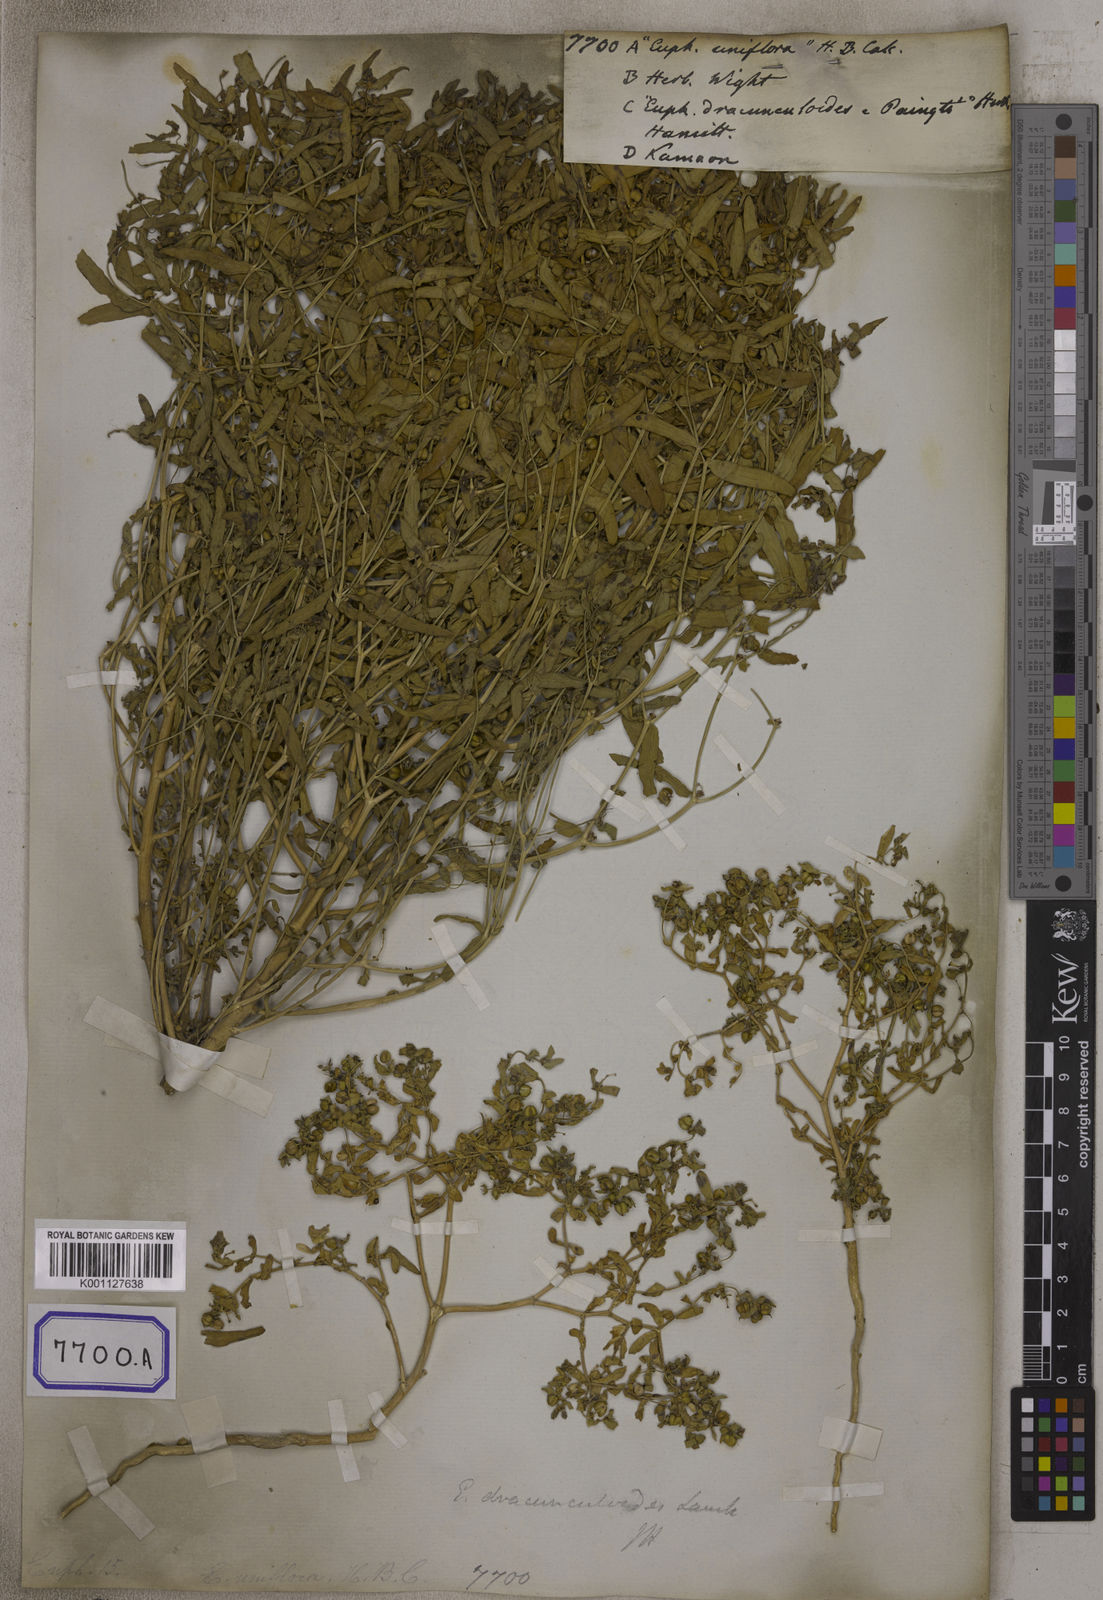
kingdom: Plantae
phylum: Tracheophyta
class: Magnoliopsida
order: Malpighiales
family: Euphorbiaceae
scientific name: Euphorbiaceae
